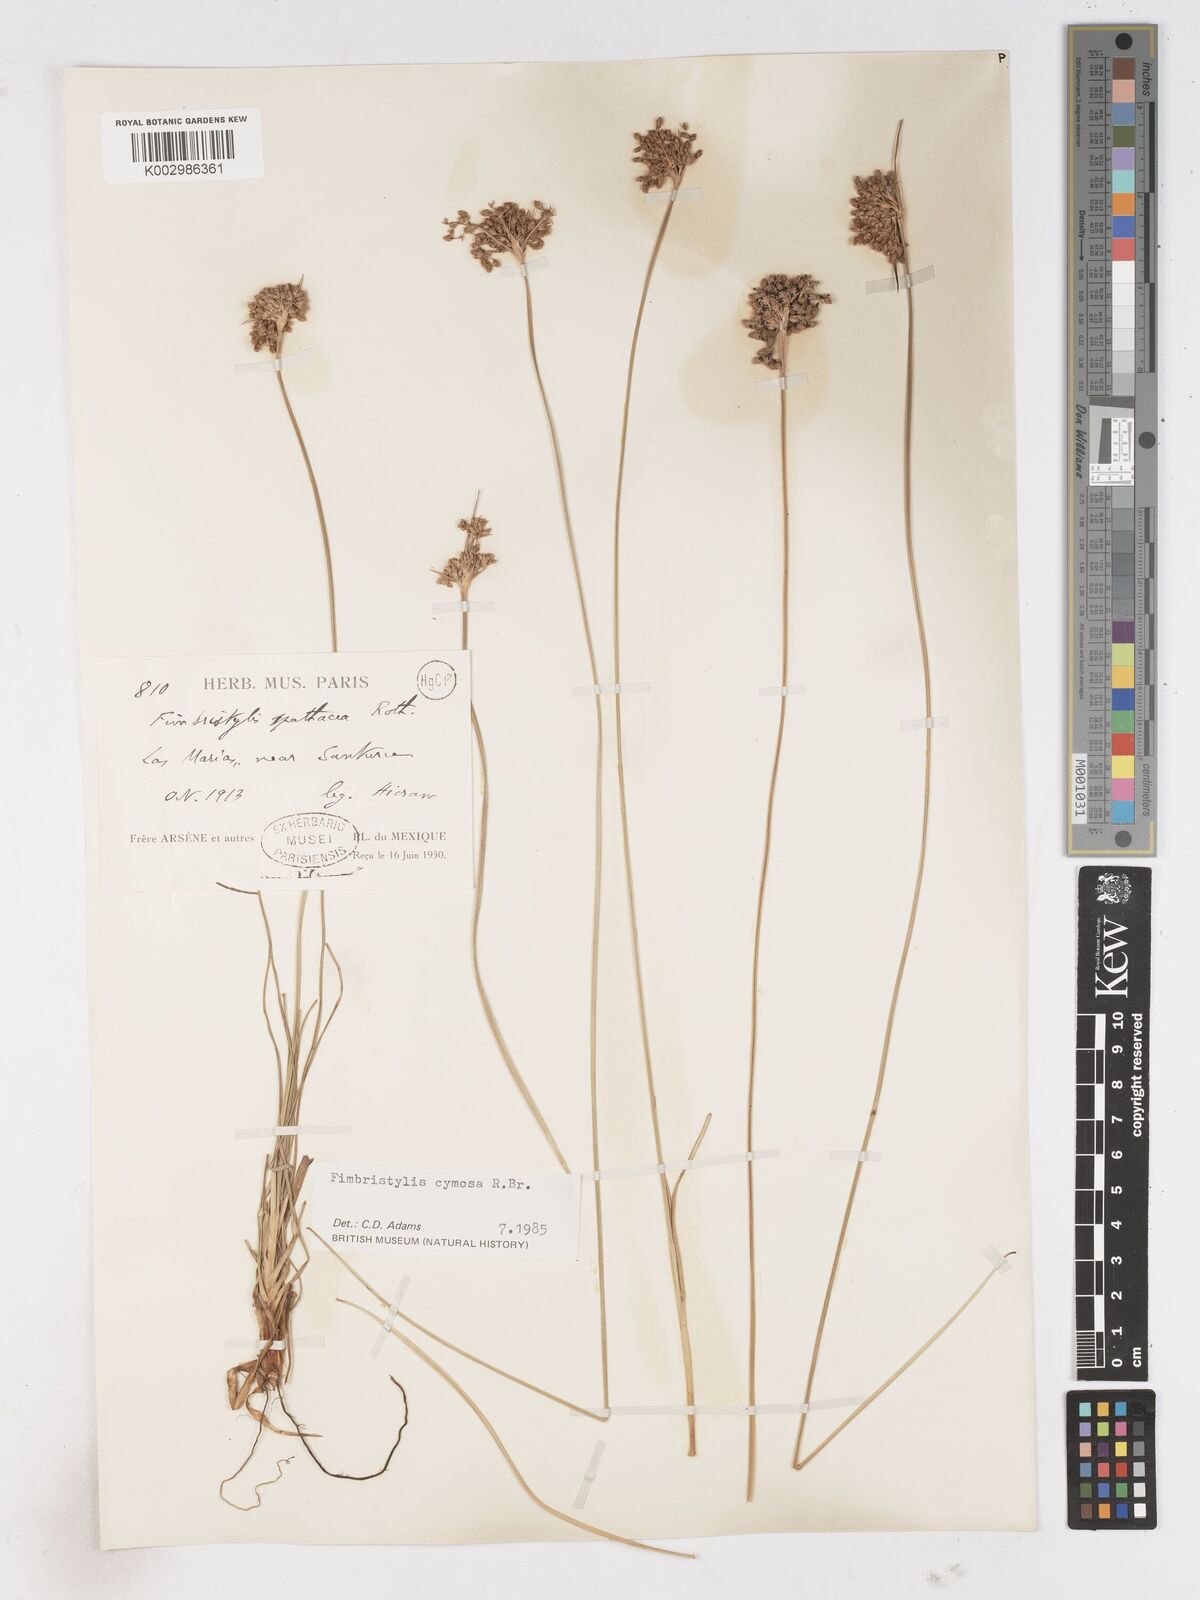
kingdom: Plantae
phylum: Tracheophyta
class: Liliopsida
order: Poales
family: Cyperaceae
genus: Fimbristylis
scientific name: Fimbristylis cymosa
